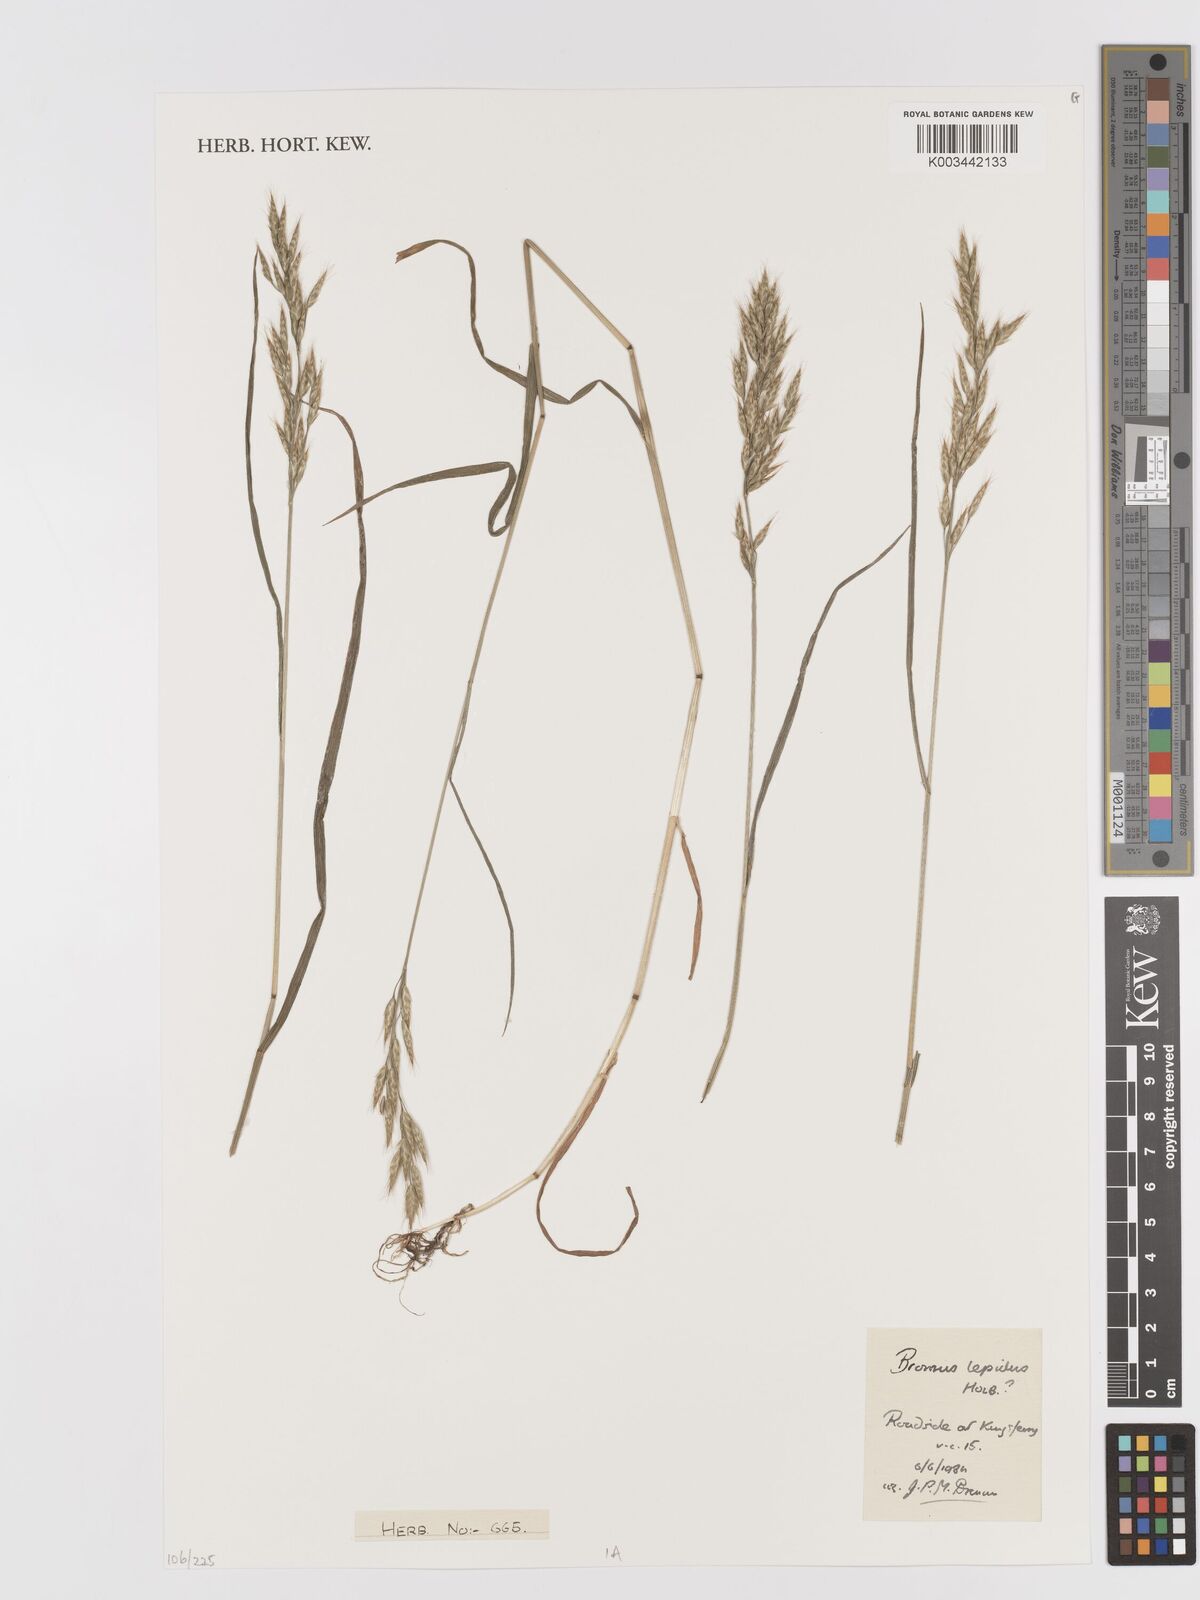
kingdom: Plantae
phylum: Tracheophyta
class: Liliopsida
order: Poales
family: Poaceae
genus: Bromus
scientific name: Bromus lepidus
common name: Slender soft-brome
